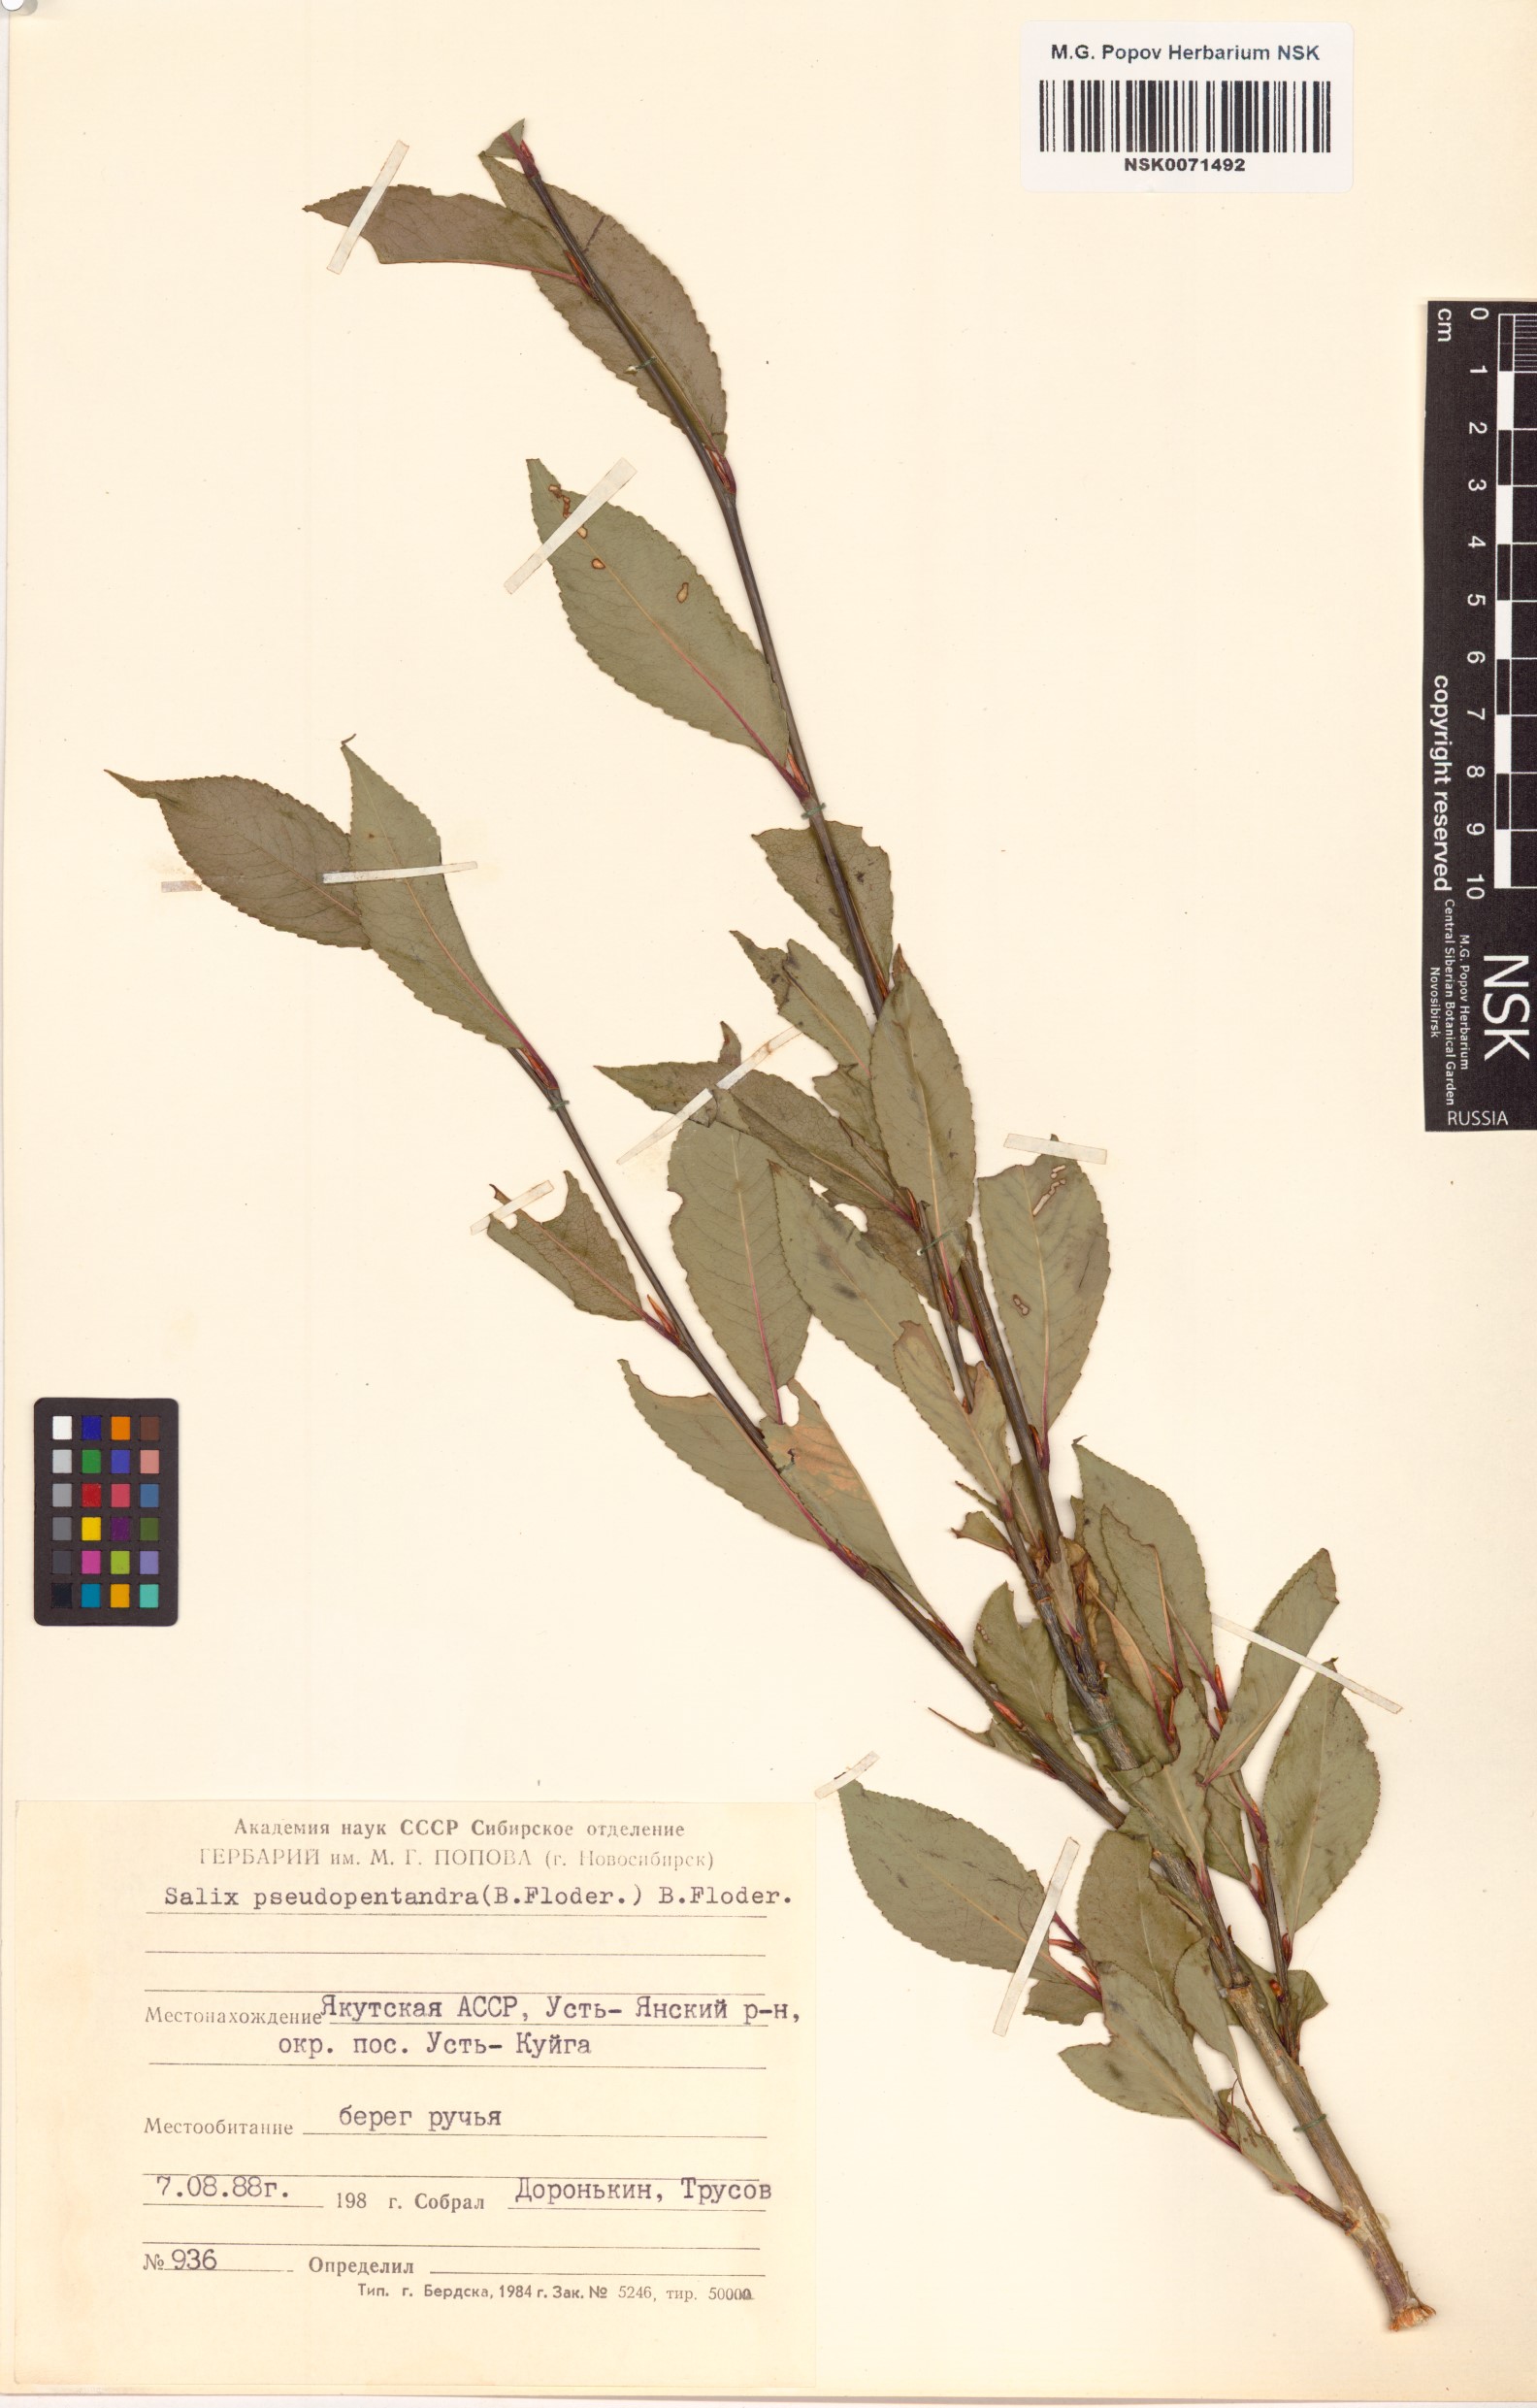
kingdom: Plantae
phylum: Tracheophyta
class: Magnoliopsida
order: Malpighiales
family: Salicaceae
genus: Salix
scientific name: Salix pseudopentandra
